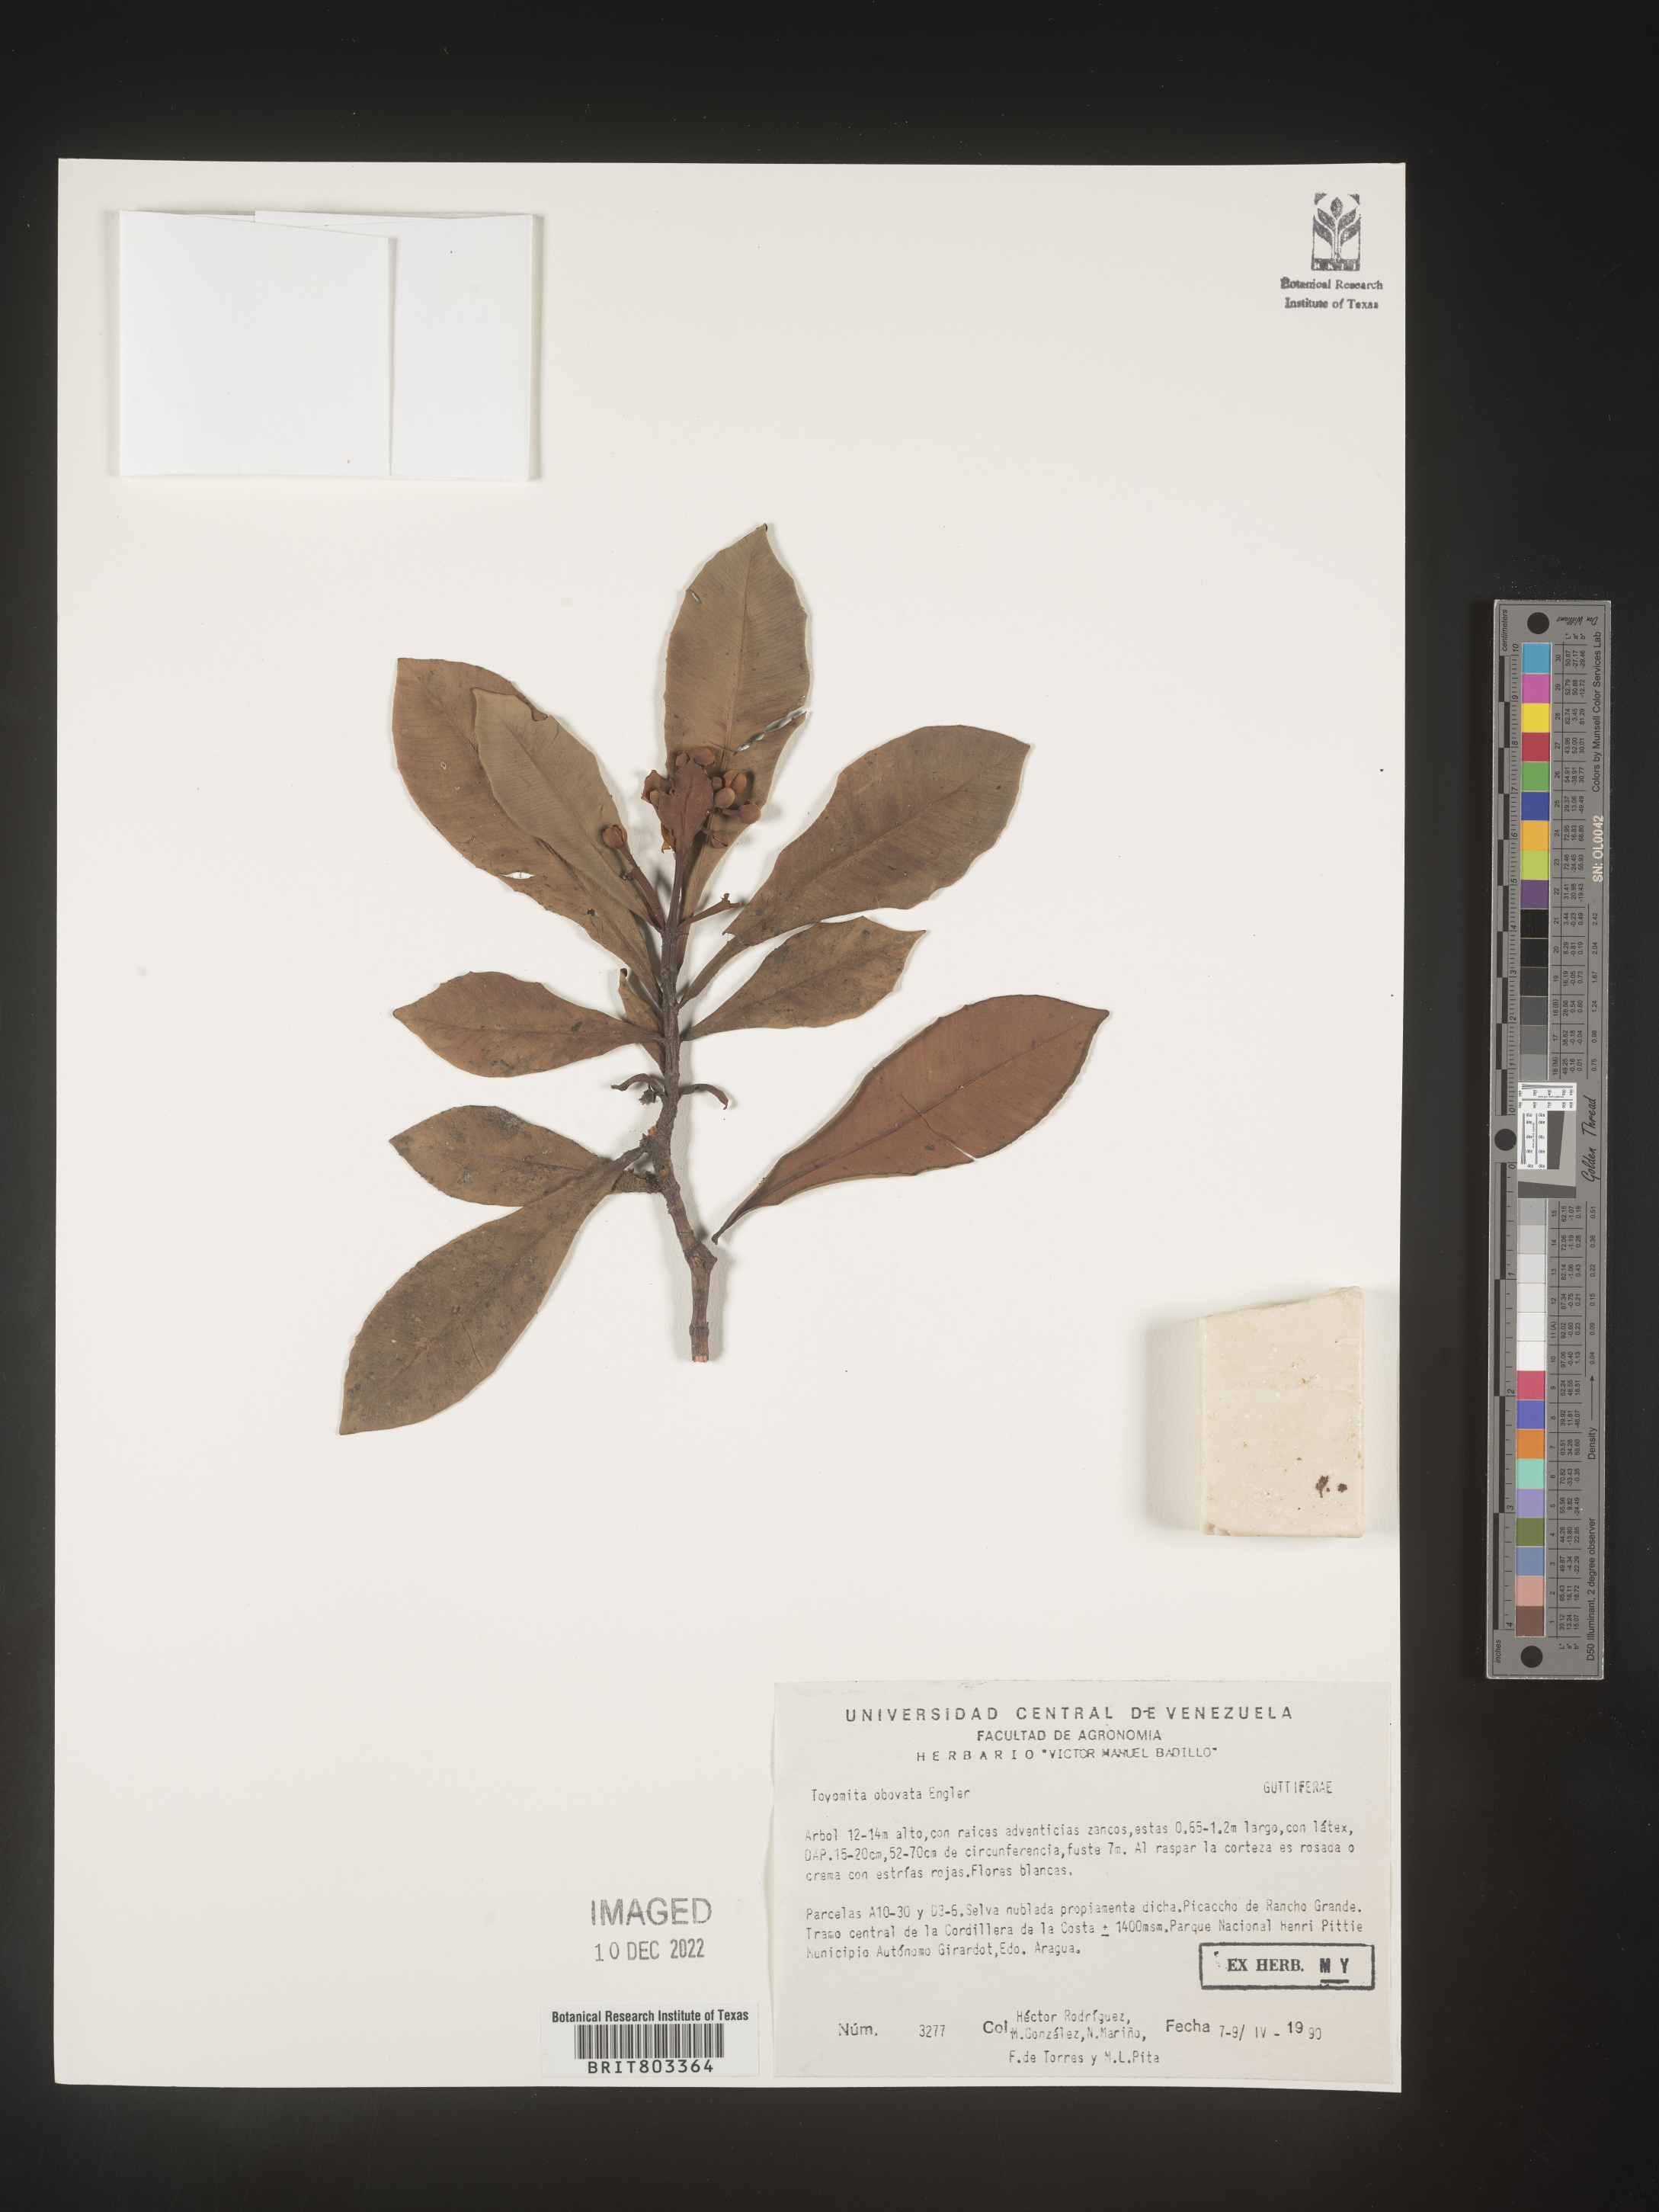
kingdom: Plantae
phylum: Tracheophyta
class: Magnoliopsida
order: Malpighiales
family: Clusiaceae
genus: Tovomita
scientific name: Tovomita
